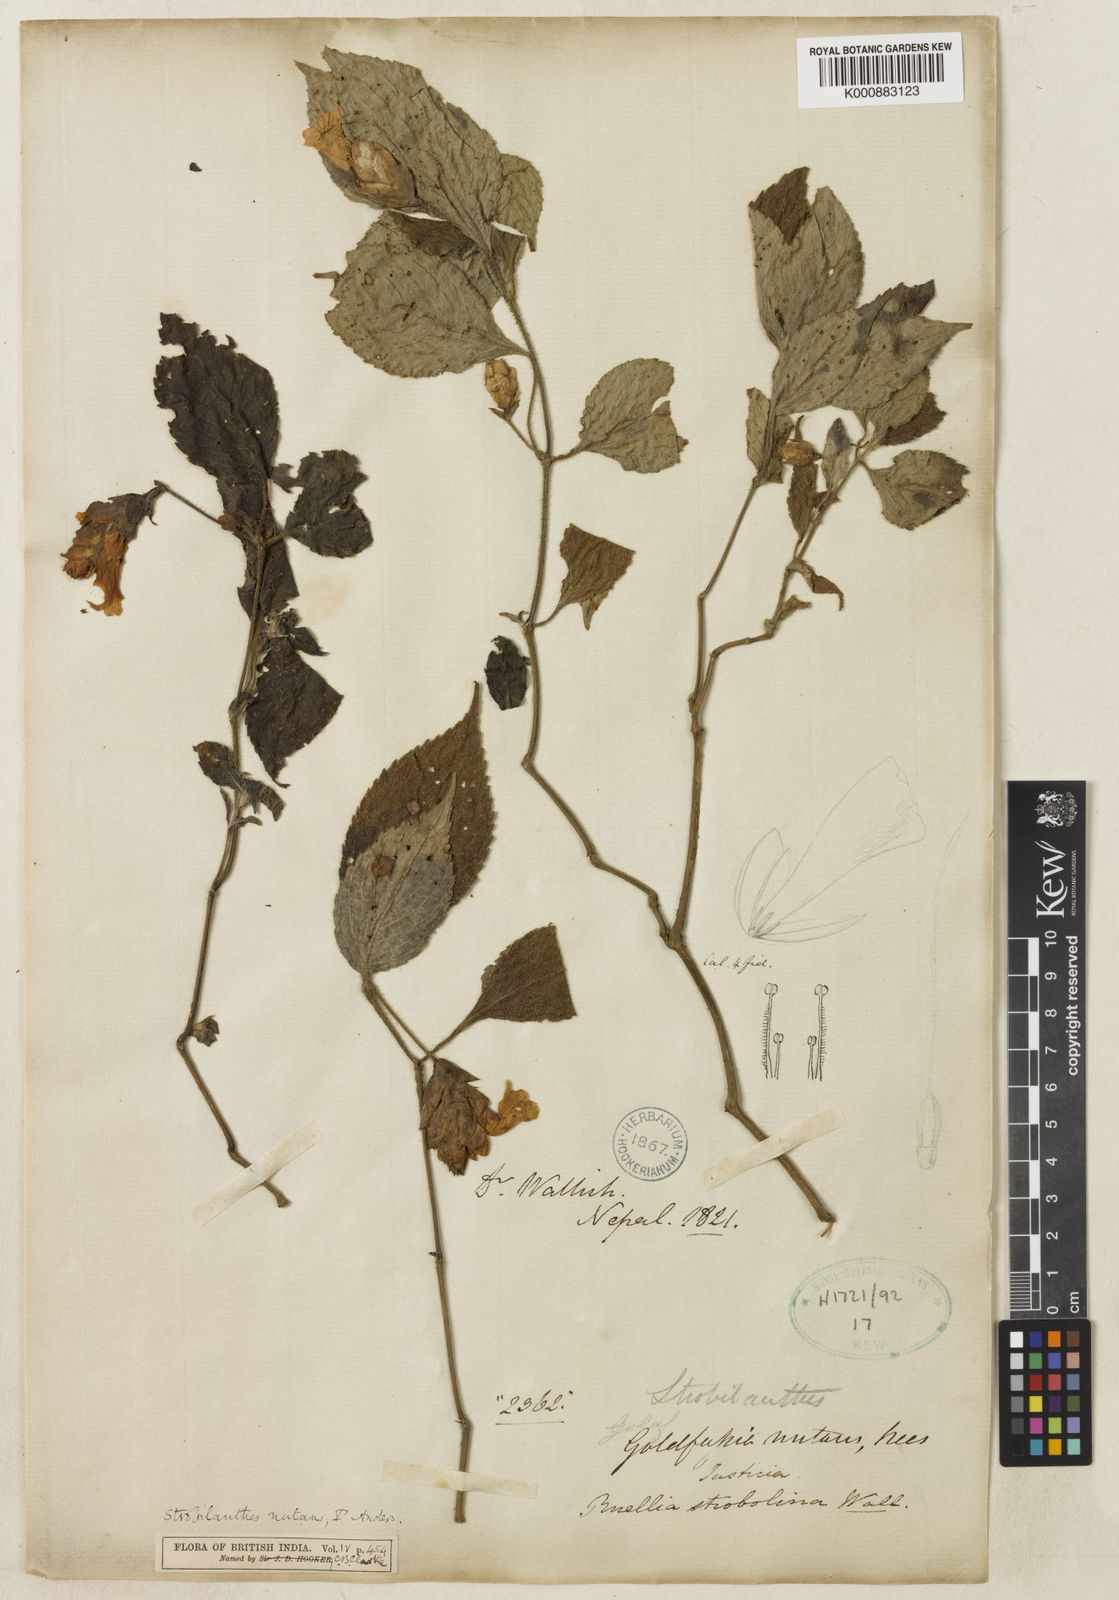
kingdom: Plantae
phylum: Tracheophyta
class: Magnoliopsida
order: Lamiales
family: Acanthaceae
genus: Strobilanthes
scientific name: Strobilanthes nutans
